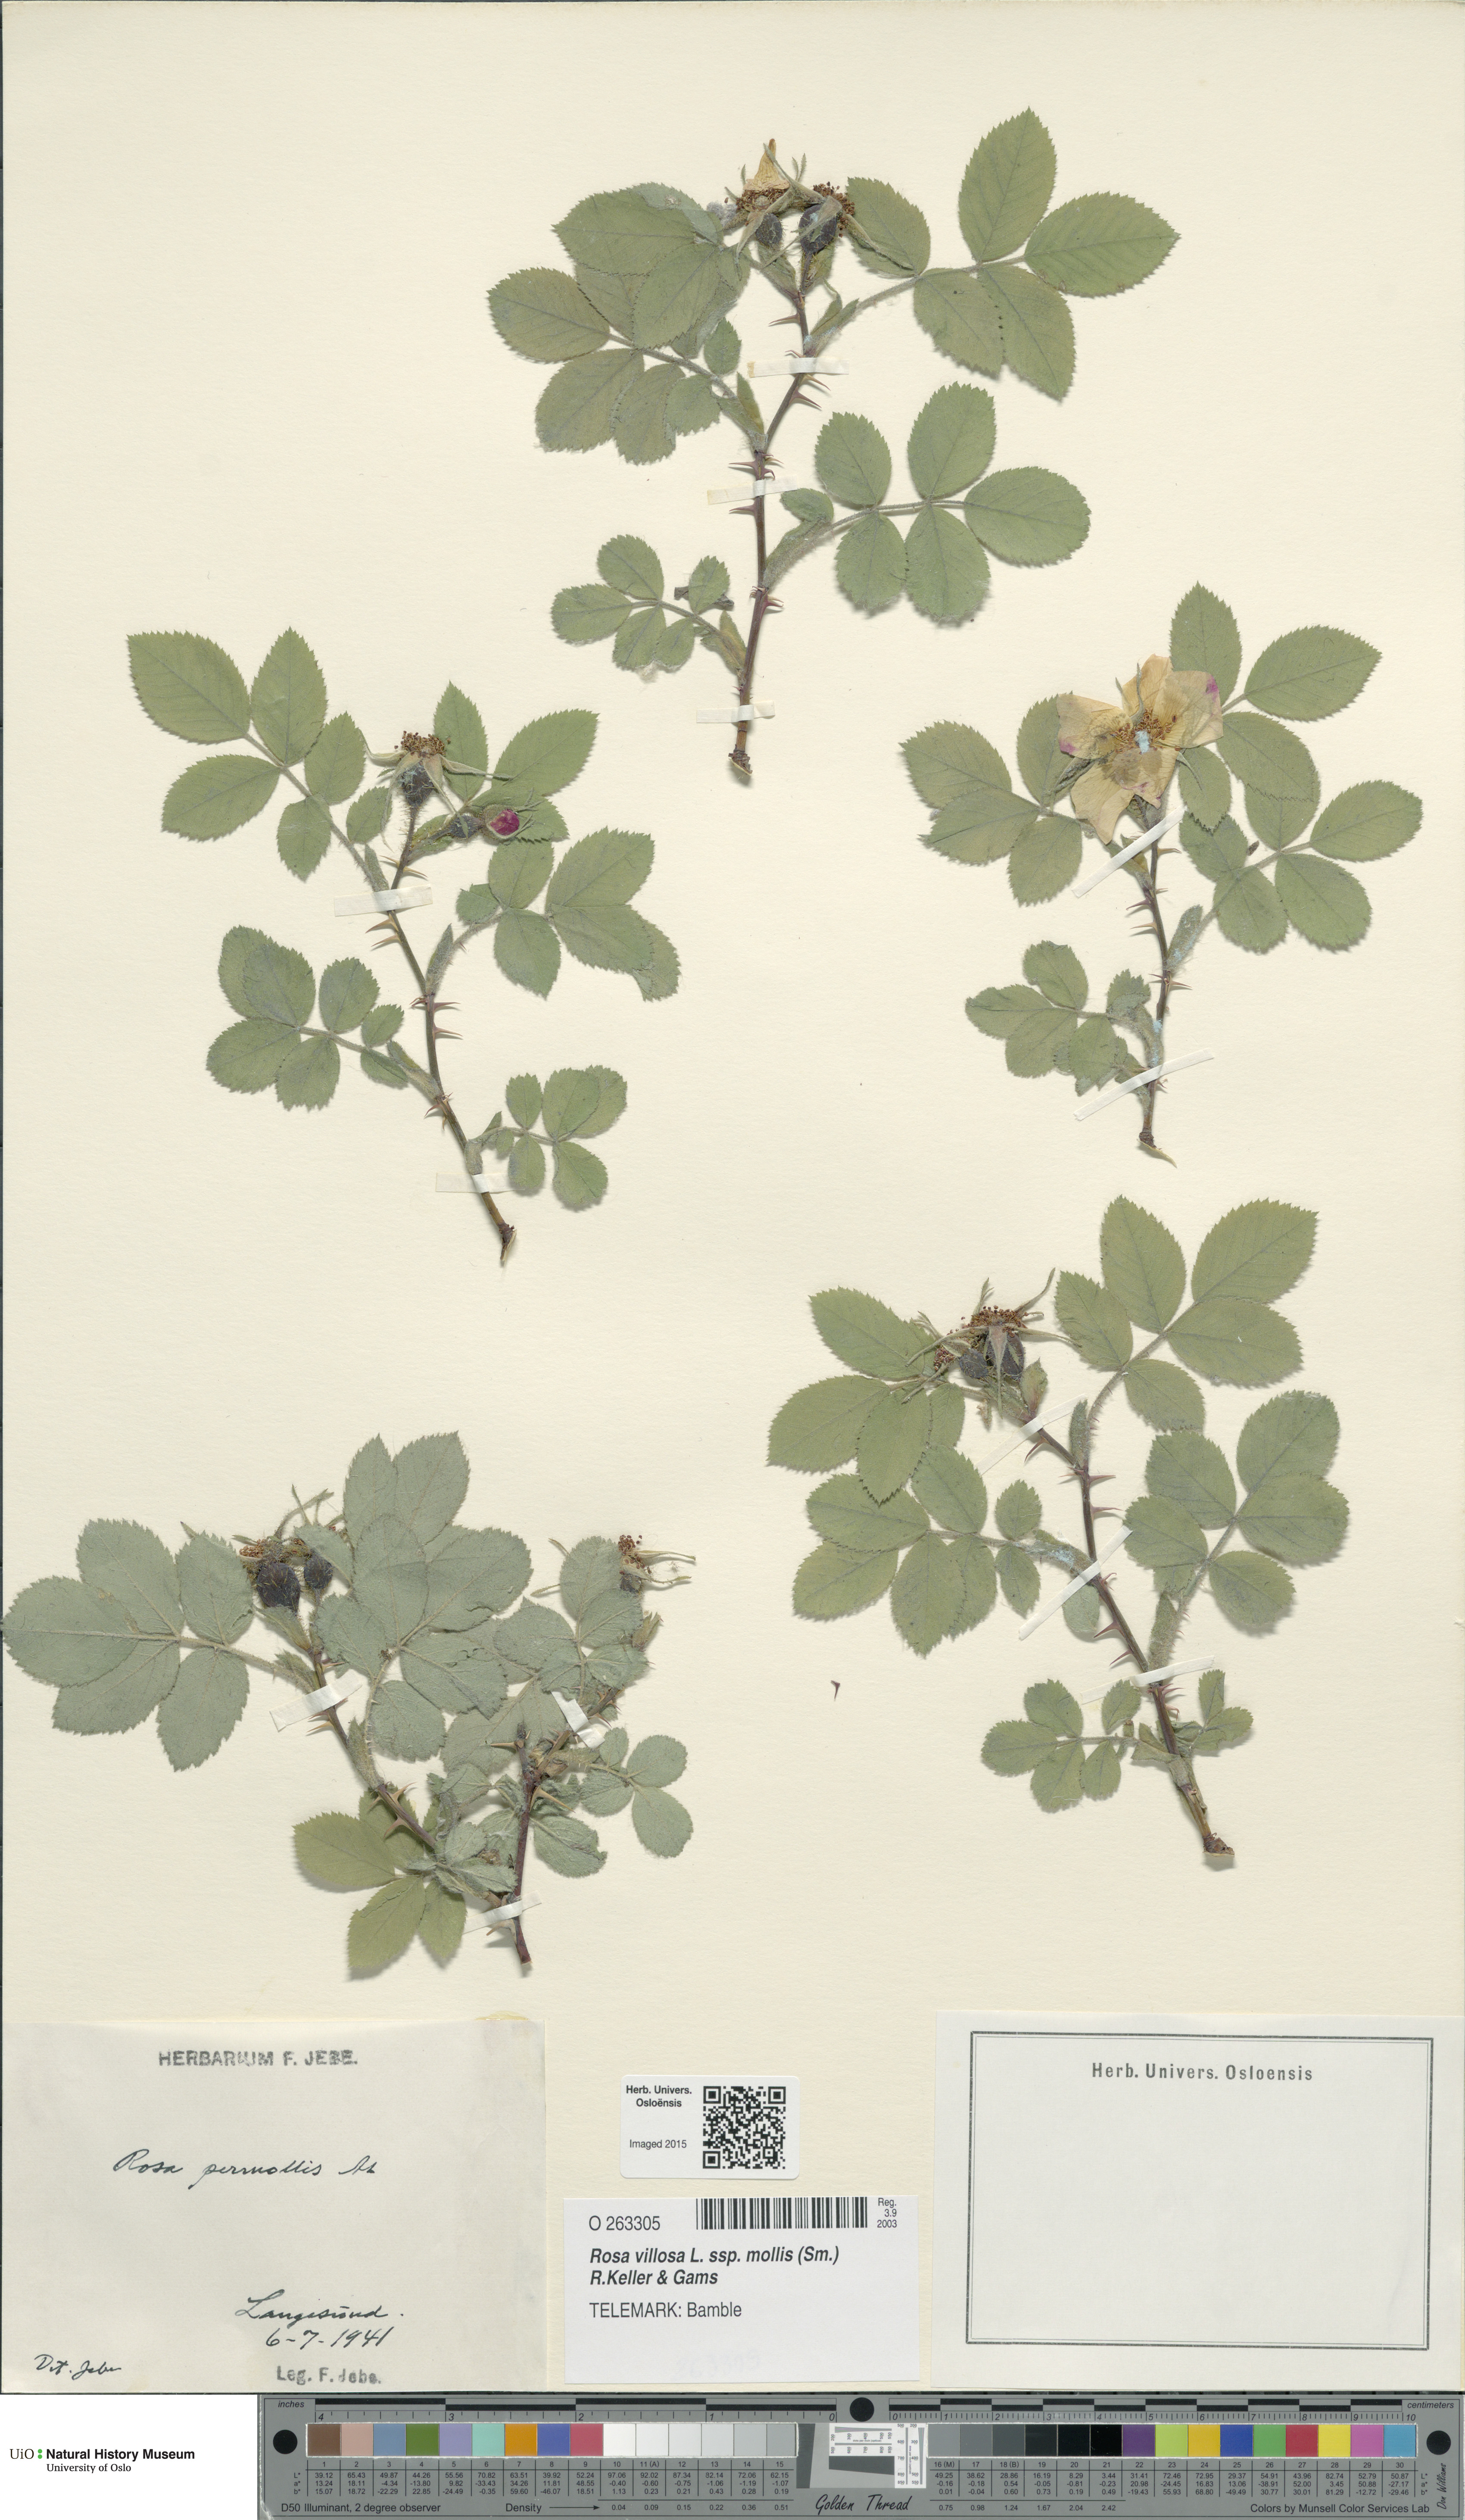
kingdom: Plantae
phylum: Tracheophyta
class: Magnoliopsida
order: Rosales
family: Rosaceae
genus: Rosa
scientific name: Rosa mollis
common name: Rose
